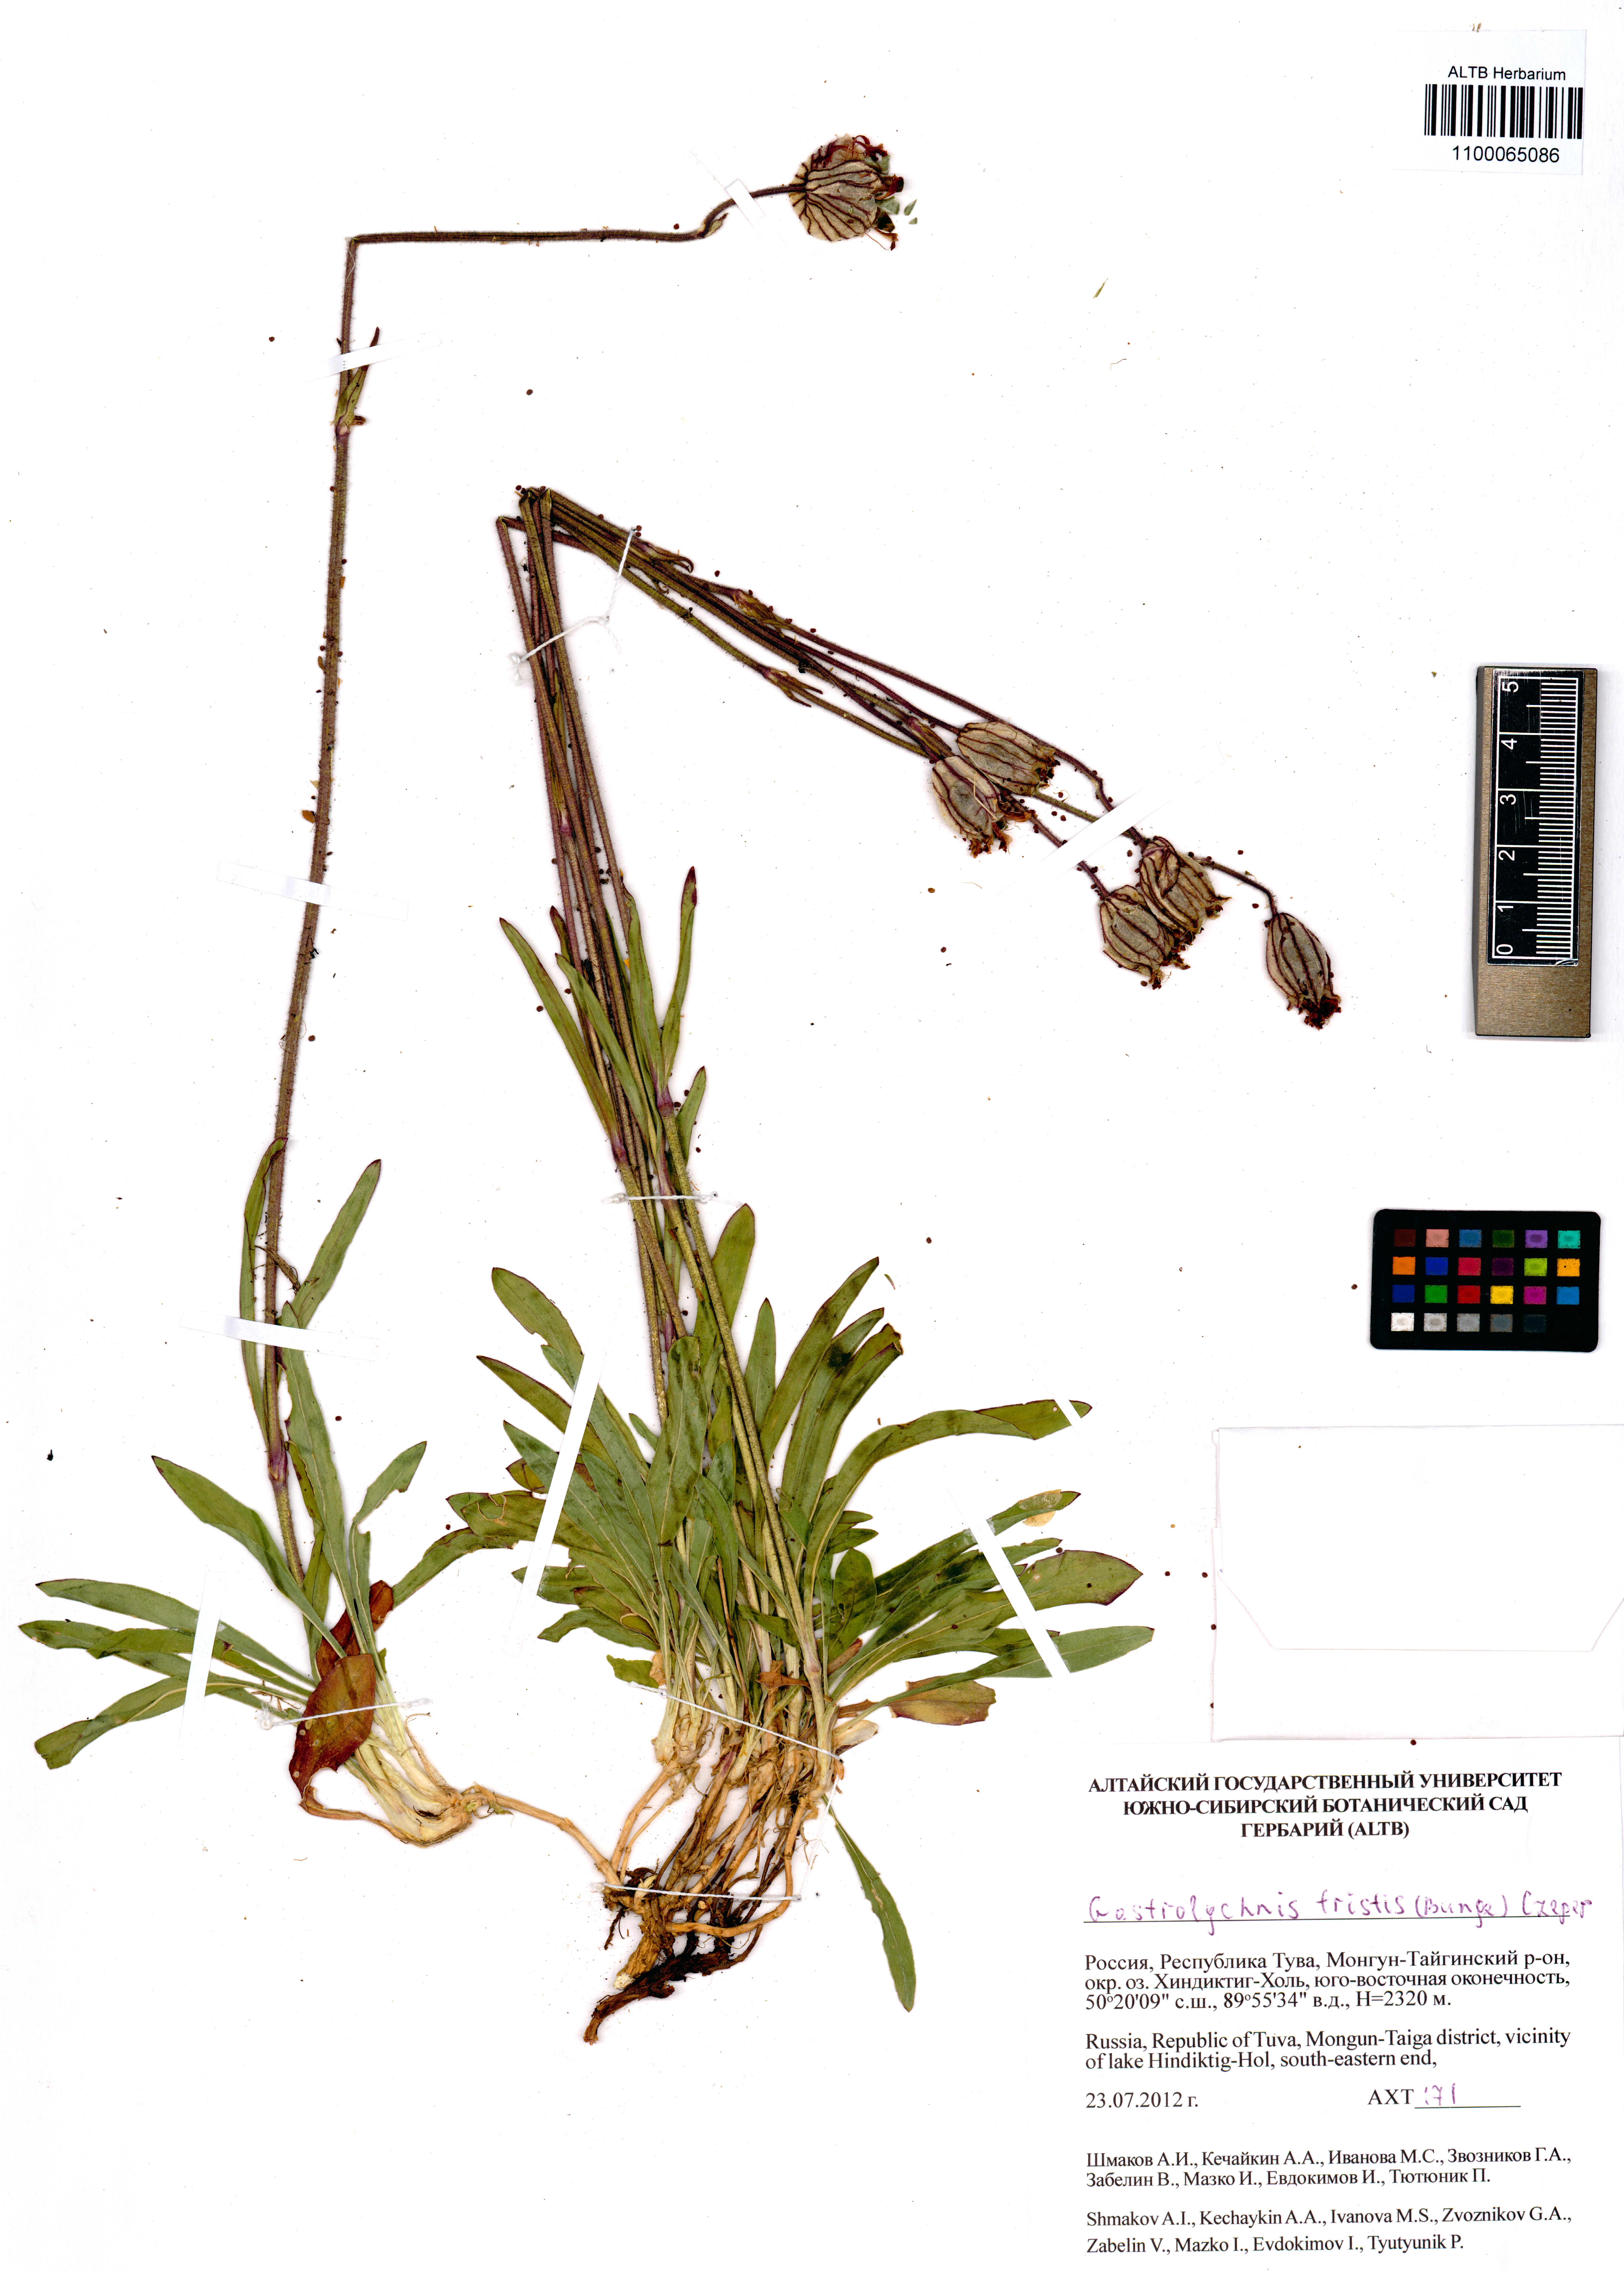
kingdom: Plantae
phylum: Tracheophyta
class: Magnoliopsida
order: Caryophyllales
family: Caryophyllaceae
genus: Silene
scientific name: Silene bungei
